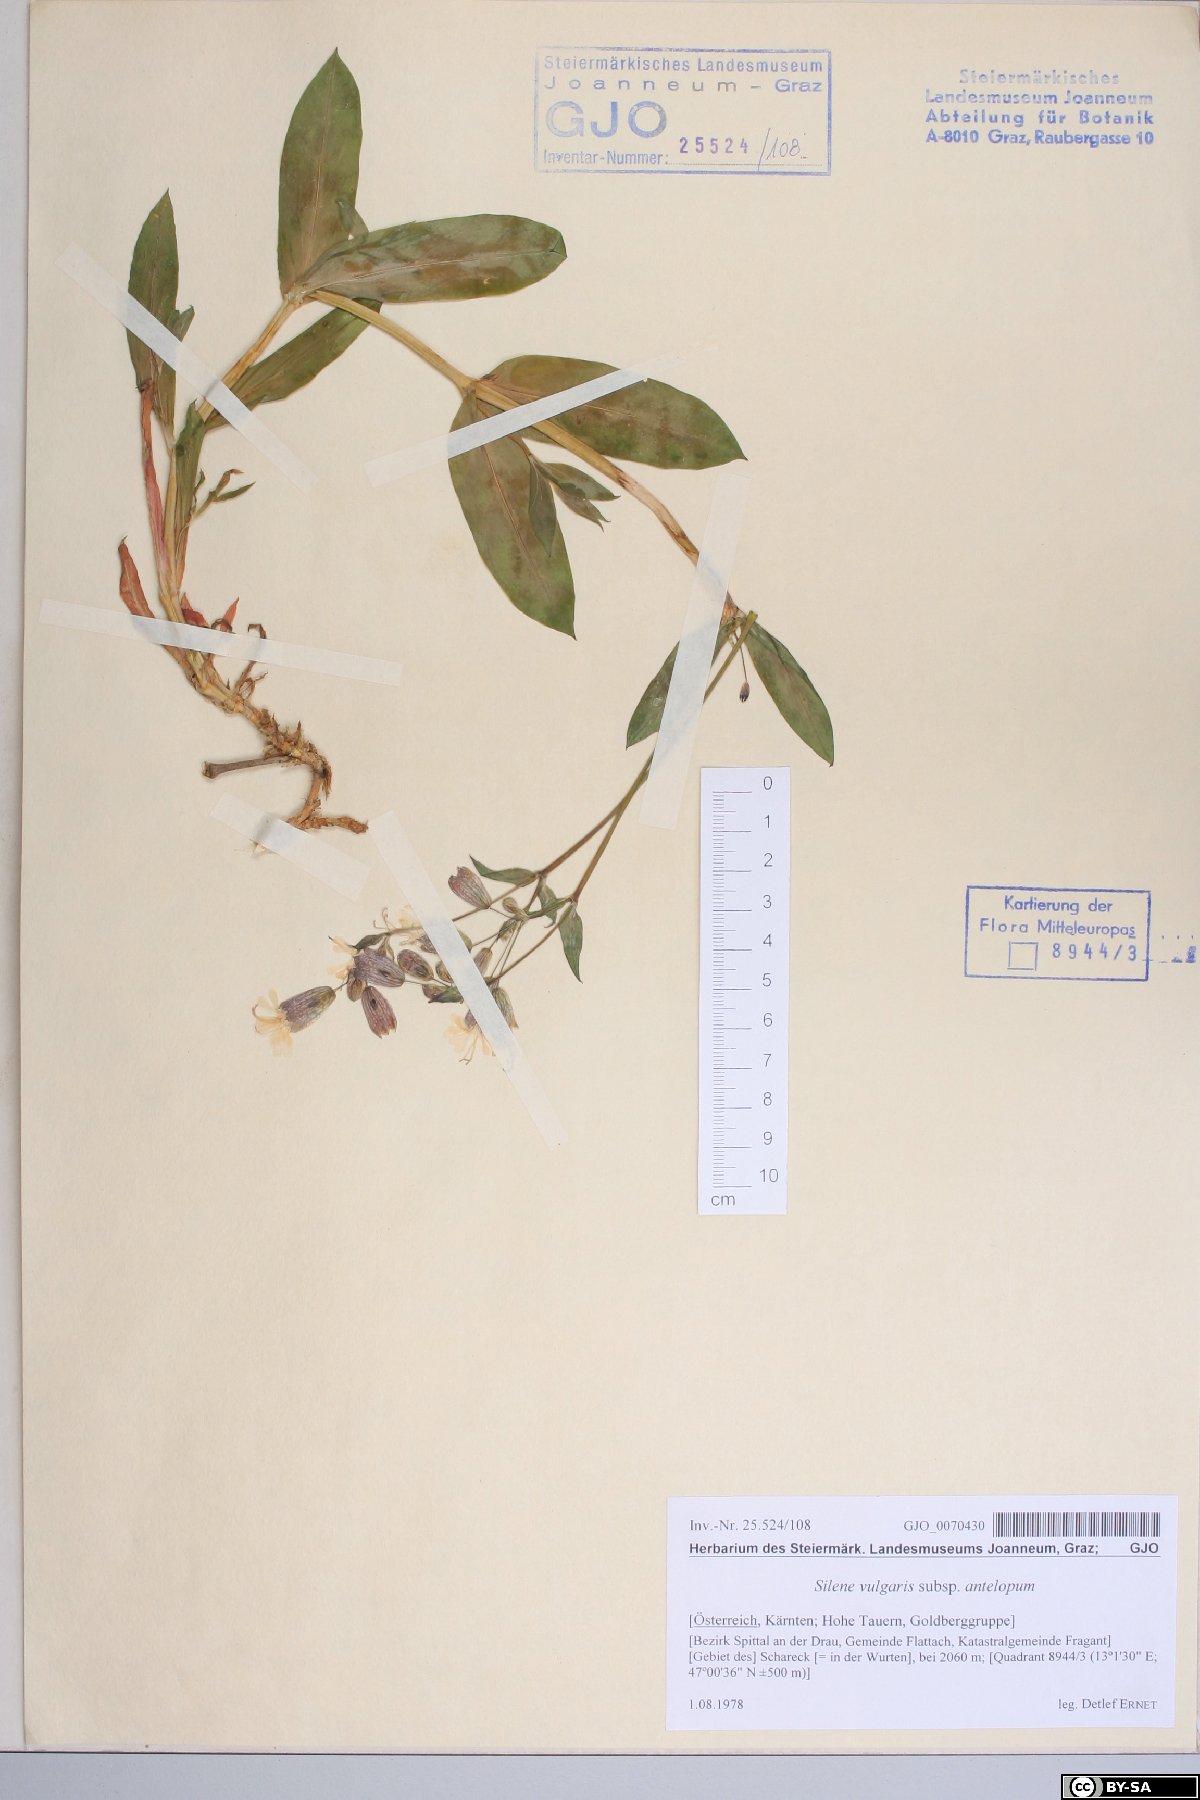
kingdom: Plantae
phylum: Tracheophyta
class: Magnoliopsida
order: Caryophyllales
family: Caryophyllaceae
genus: Silene
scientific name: Silene commutata
